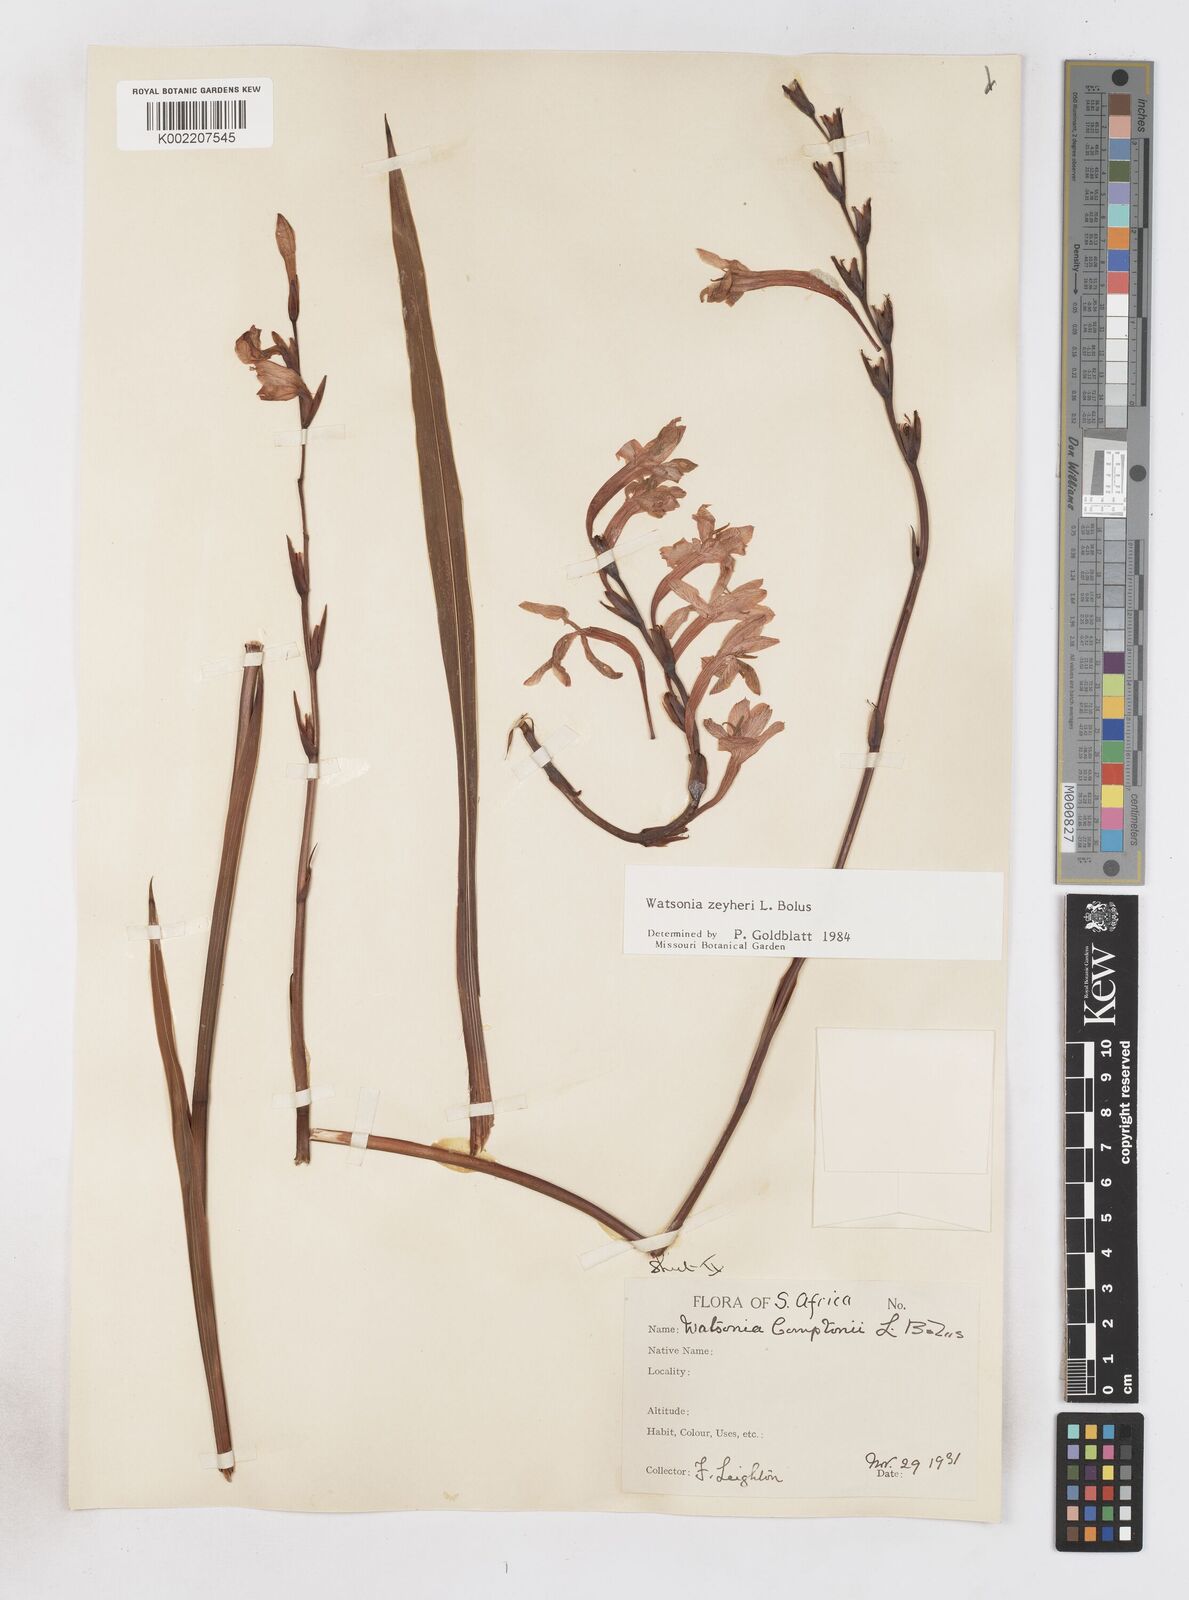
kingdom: Plantae
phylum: Tracheophyta
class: Liliopsida
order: Asparagales
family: Iridaceae
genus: Watsonia
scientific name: Watsonia zeyheri
